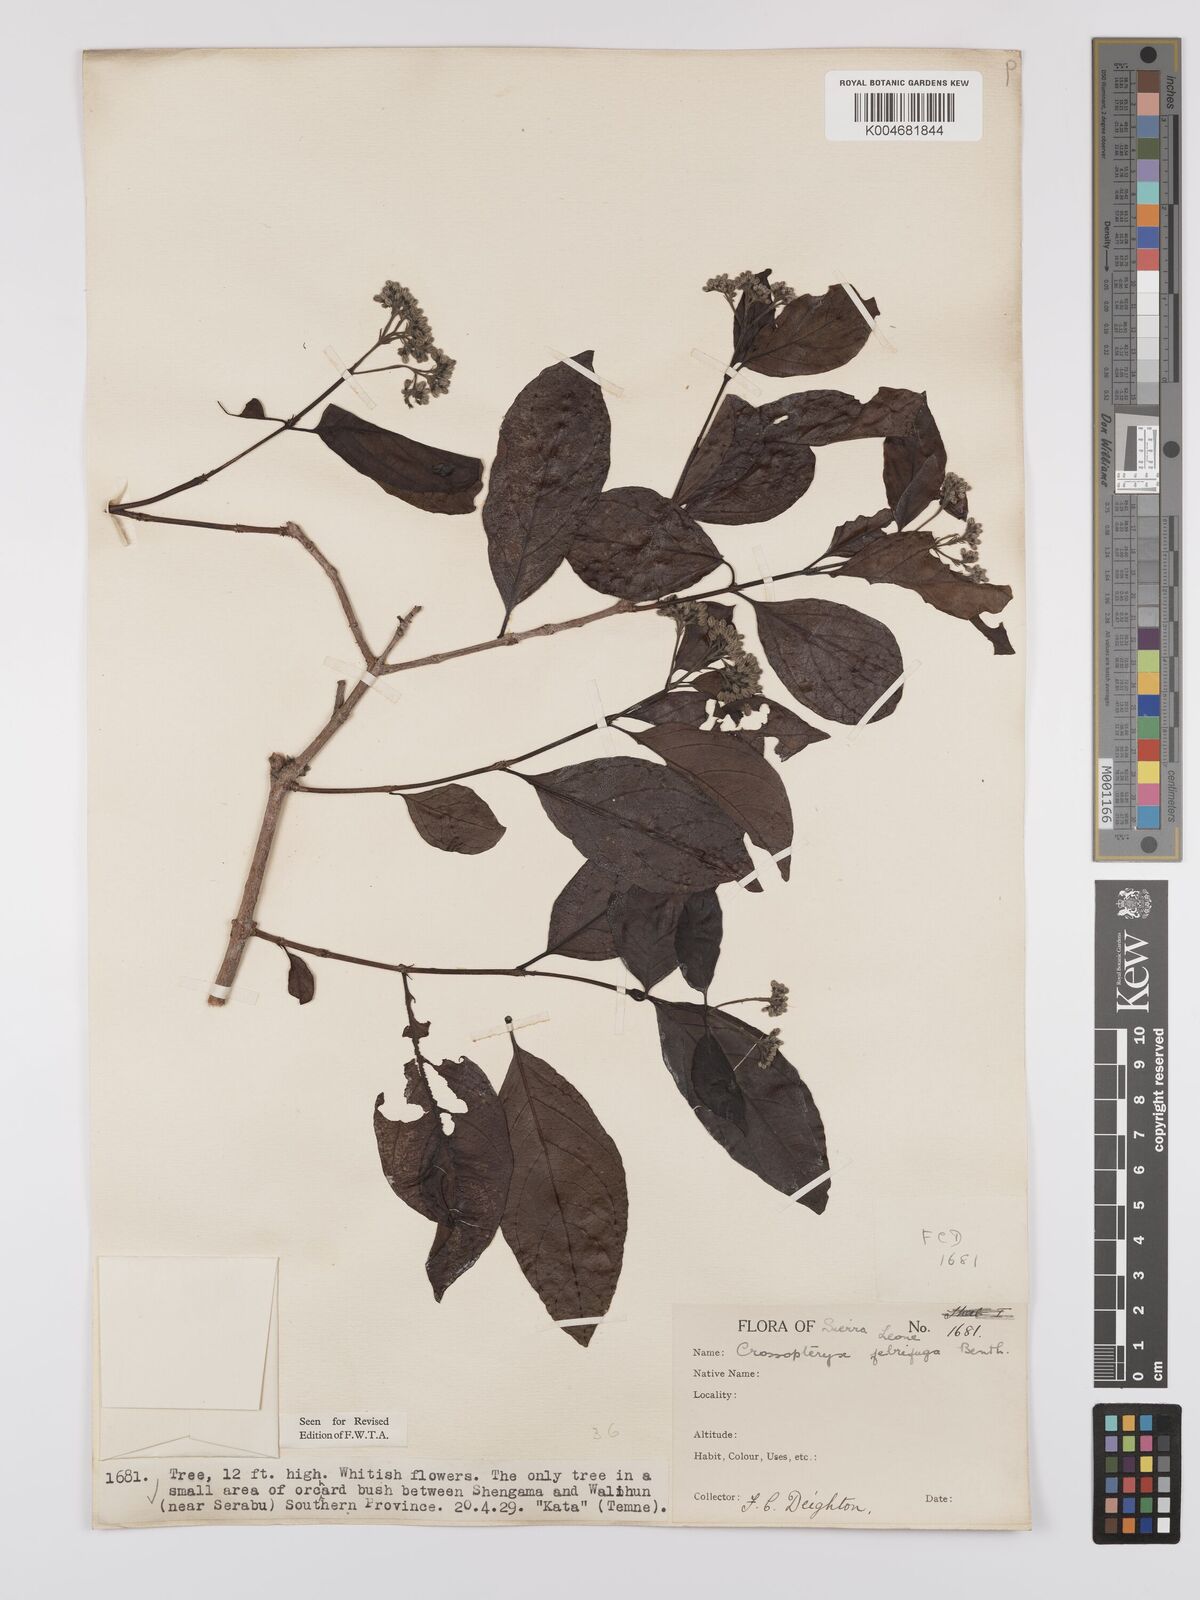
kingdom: Plantae
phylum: Tracheophyta
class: Magnoliopsida
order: Gentianales
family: Rubiaceae
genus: Crossopteryx
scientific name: Crossopteryx febrifuga
